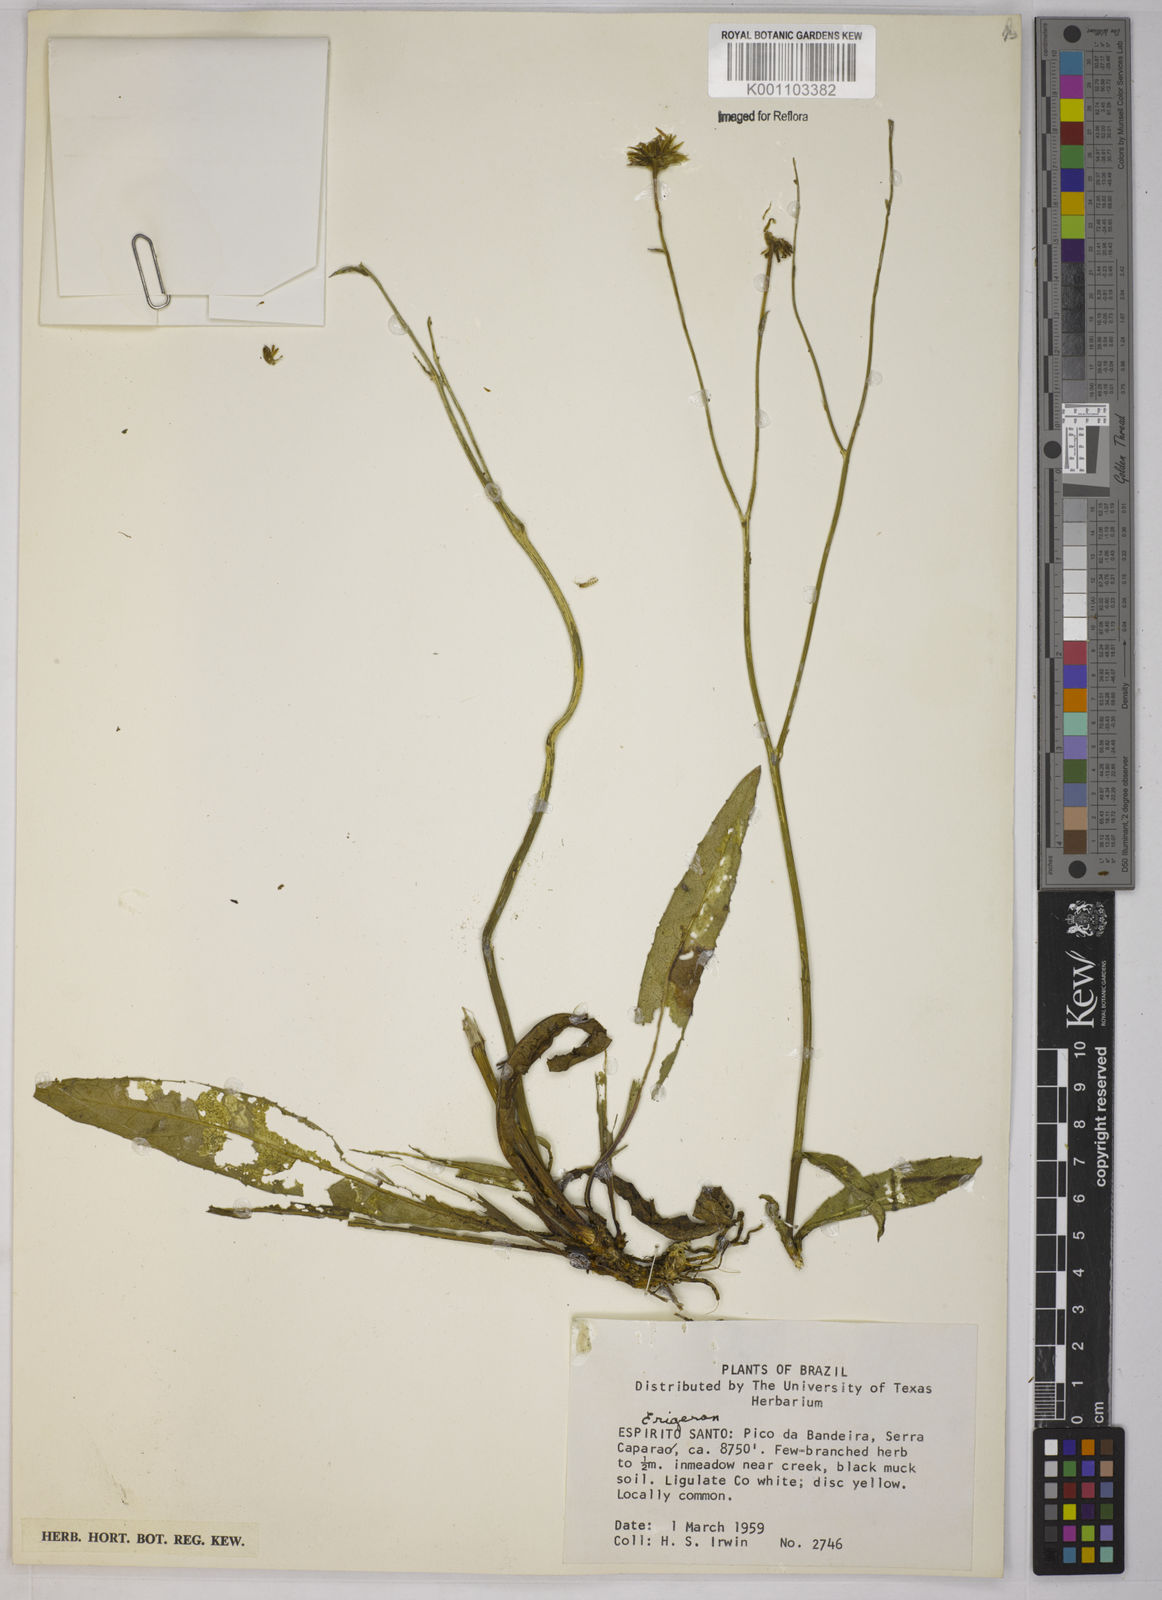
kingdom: Plantae
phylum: Tracheophyta
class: Magnoliopsida
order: Asterales
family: Asteraceae
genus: Leptostelma
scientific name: Leptostelma
